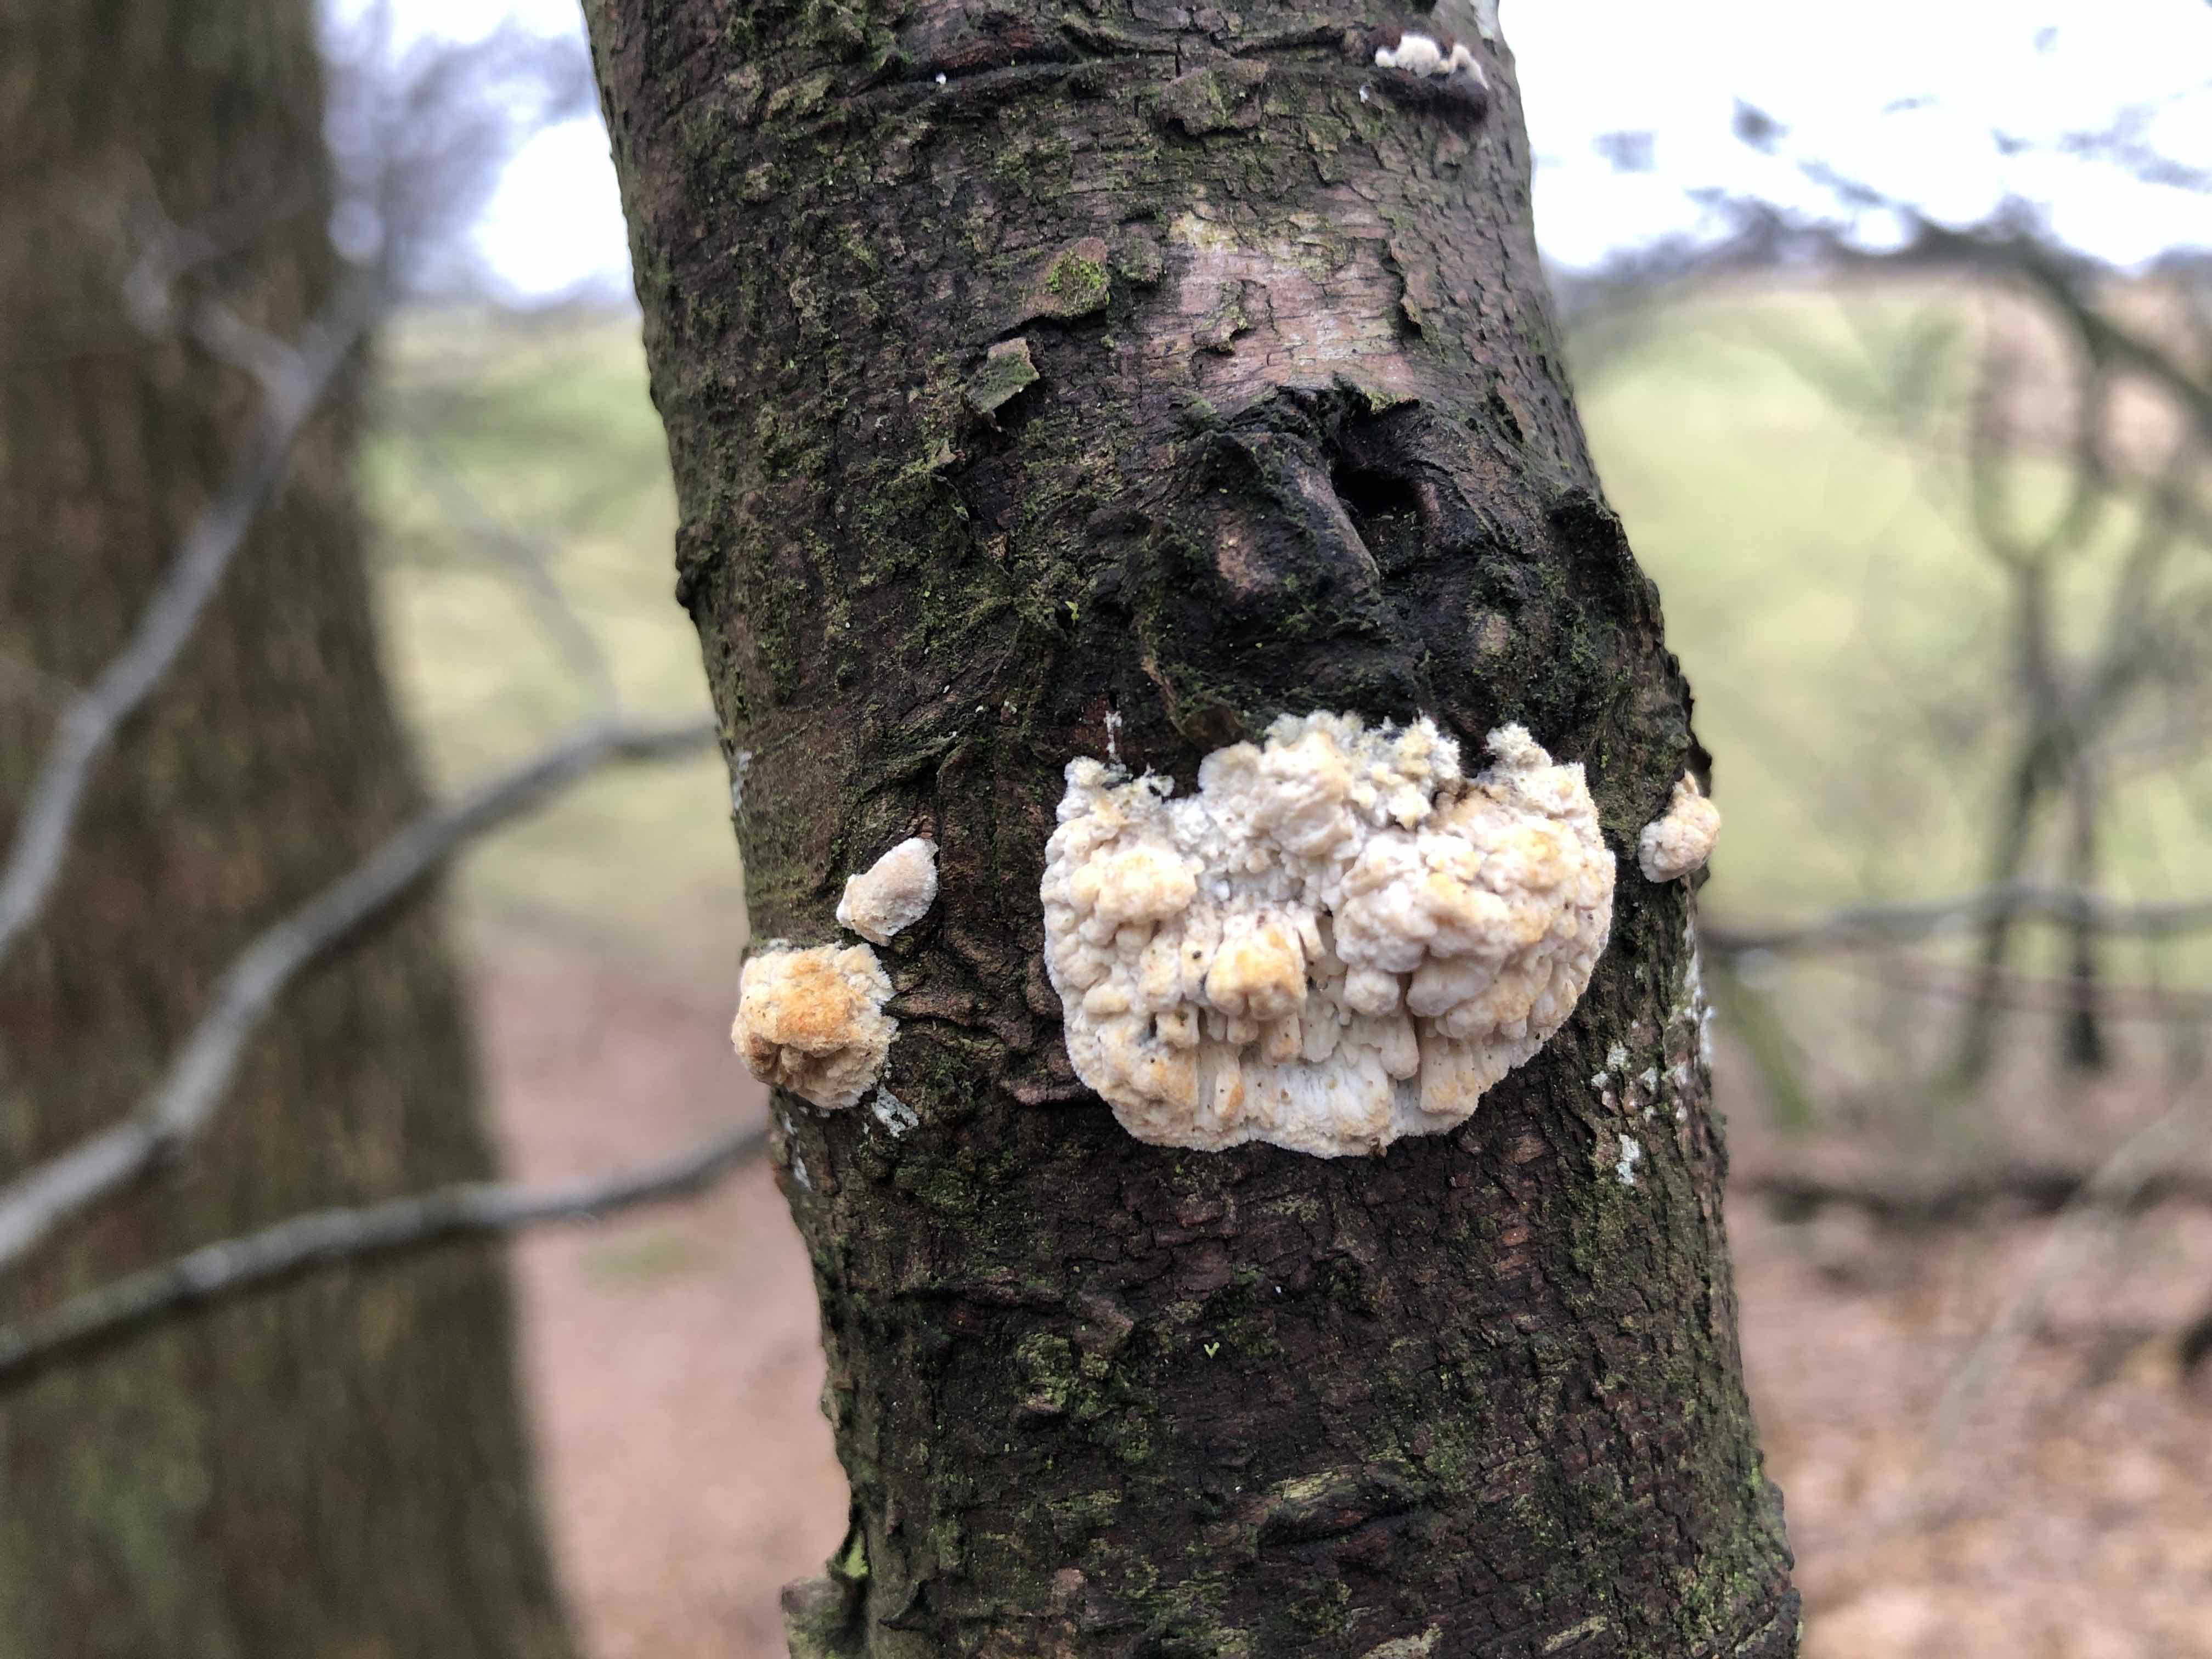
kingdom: Fungi
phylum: Basidiomycota
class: Agaricomycetes
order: Hymenochaetales
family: Schizoporaceae
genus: Xylodon
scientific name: Xylodon radula
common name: grovtandet kalkskind
